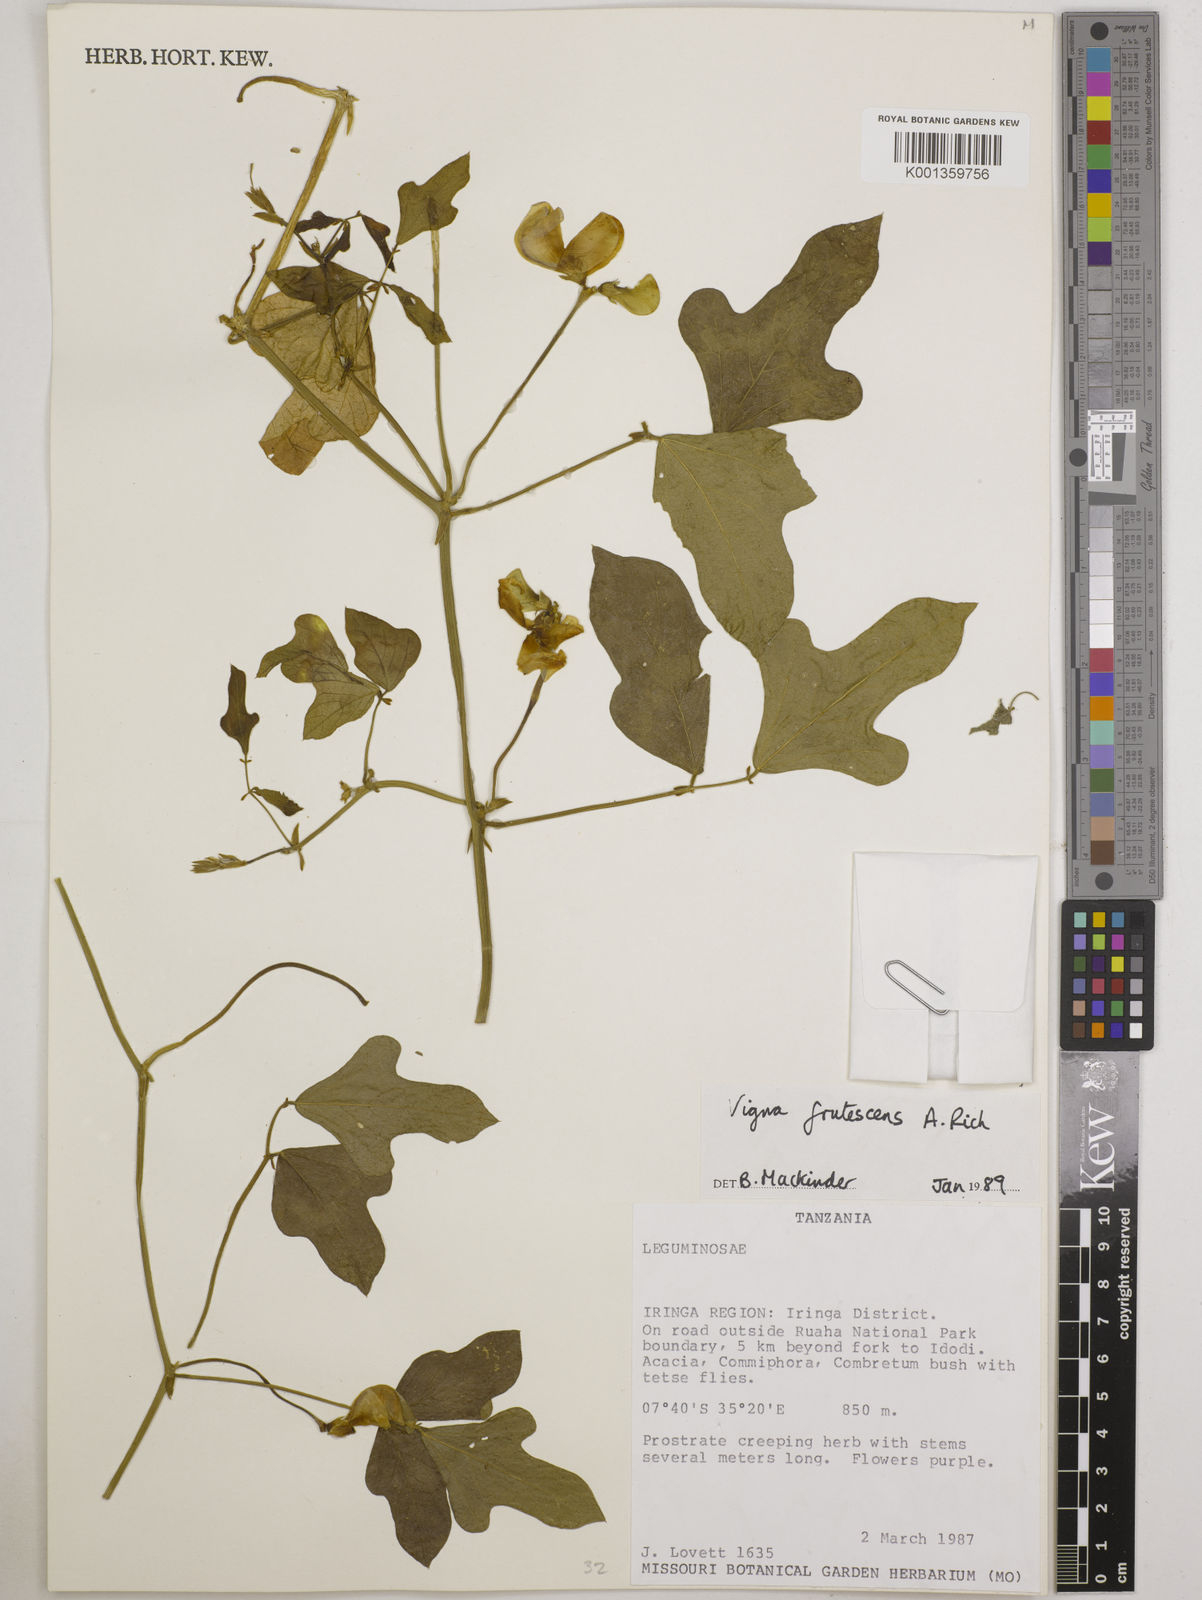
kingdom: Plantae
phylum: Tracheophyta
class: Magnoliopsida
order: Fabales
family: Fabaceae
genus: Vigna
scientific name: Vigna frutescens
